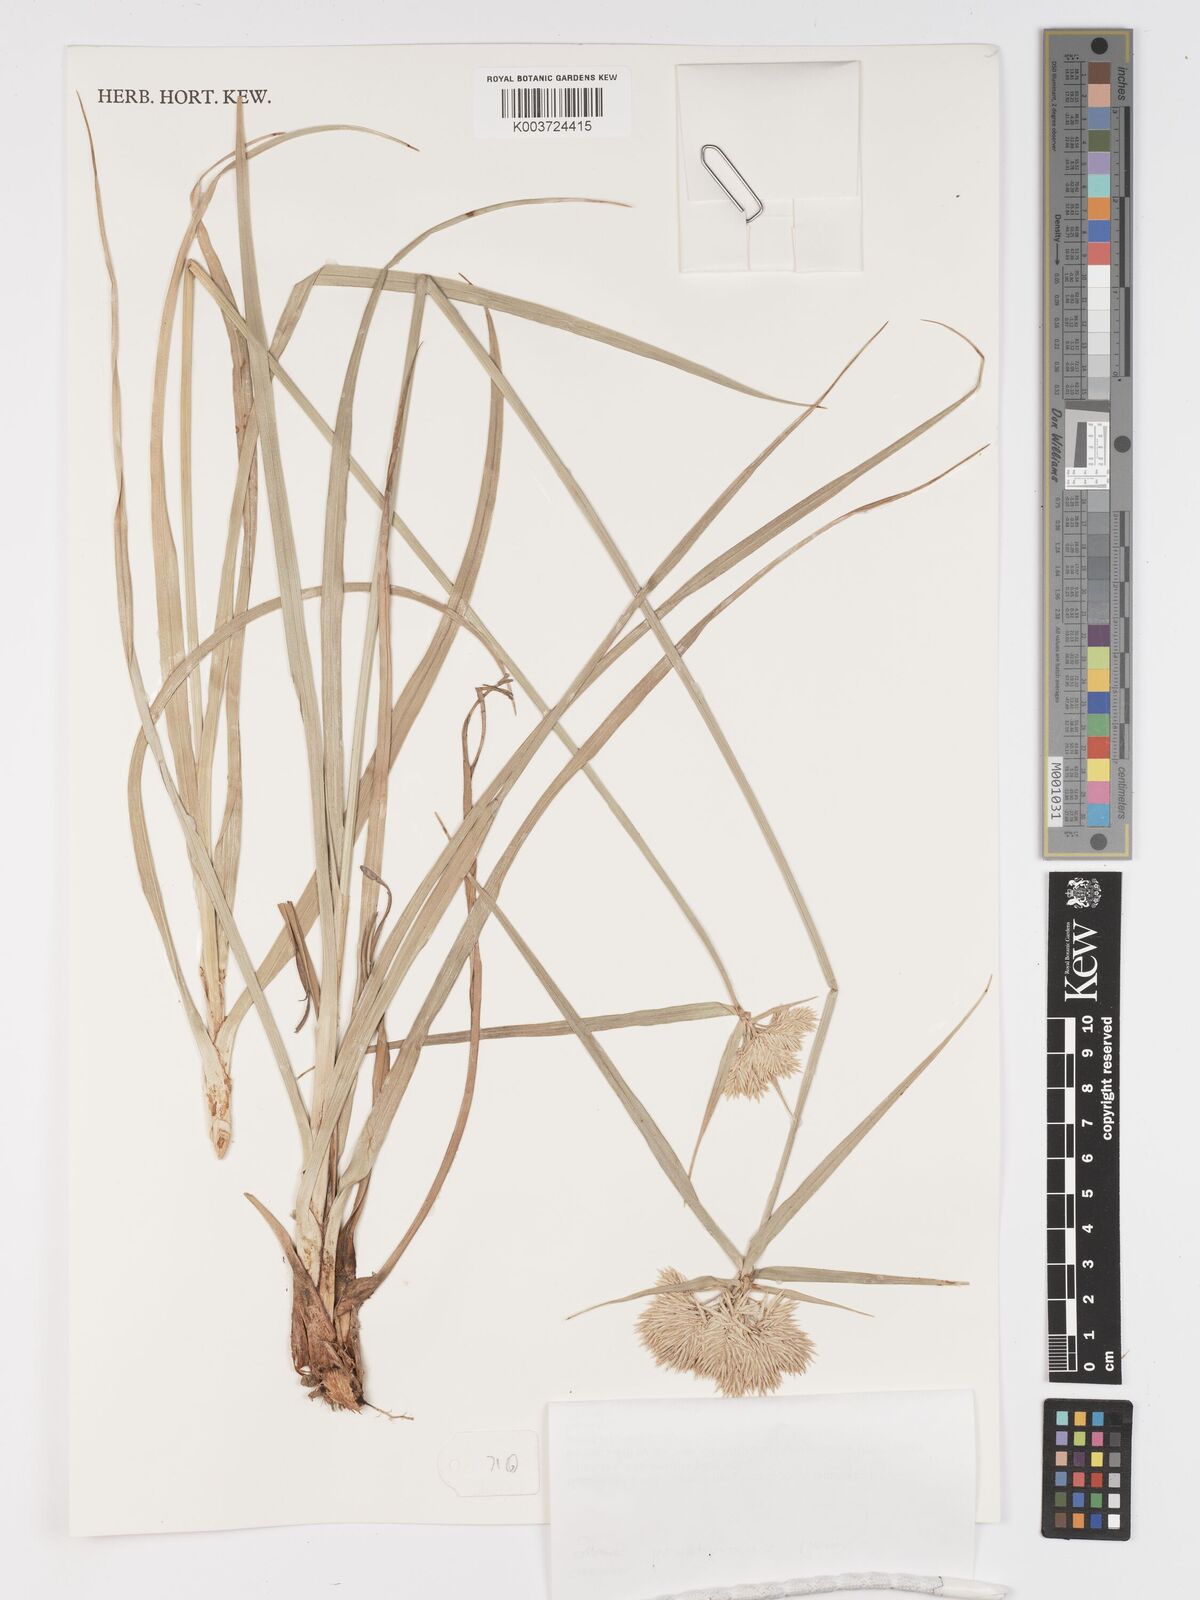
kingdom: Plantae
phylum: Tracheophyta
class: Liliopsida
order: Poales
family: Cyperaceae
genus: Cyperus
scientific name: Cyperus hemisphaericus
